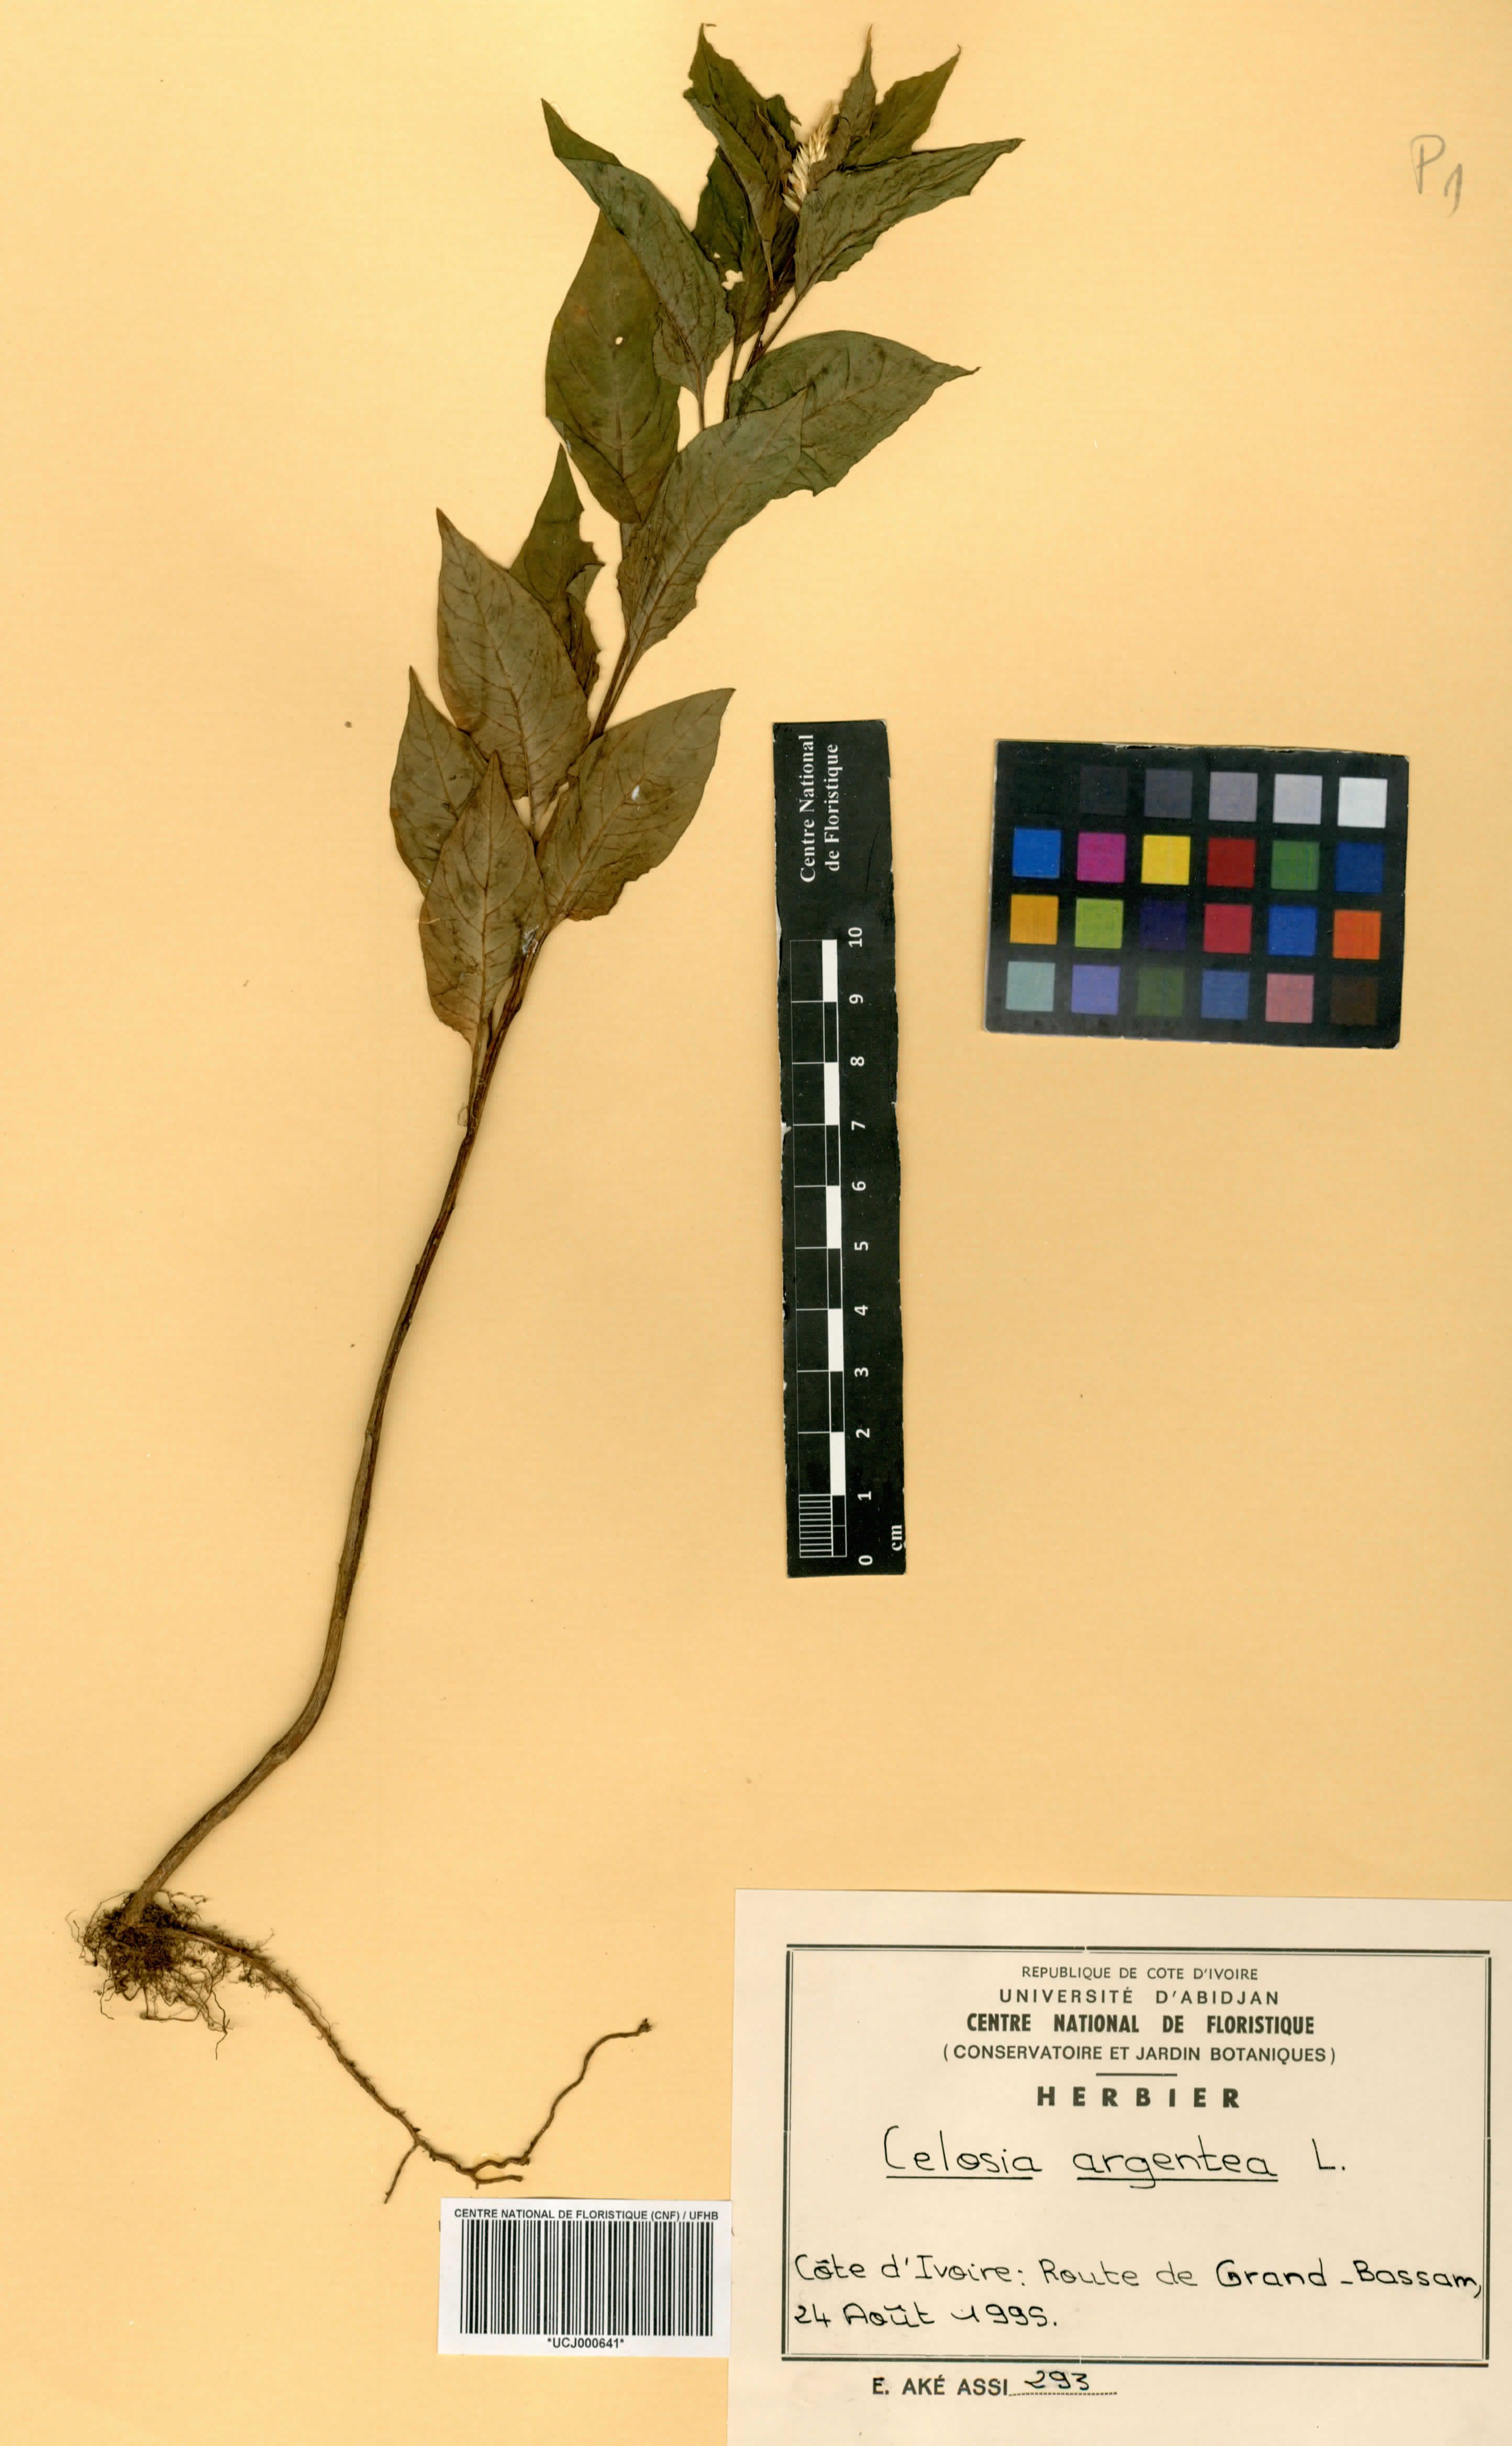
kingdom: Plantae
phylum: Tracheophyta
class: Magnoliopsida
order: Caryophyllales
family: Amaranthaceae
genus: Celosia
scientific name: Celosia argentea
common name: Feather cockscomb
